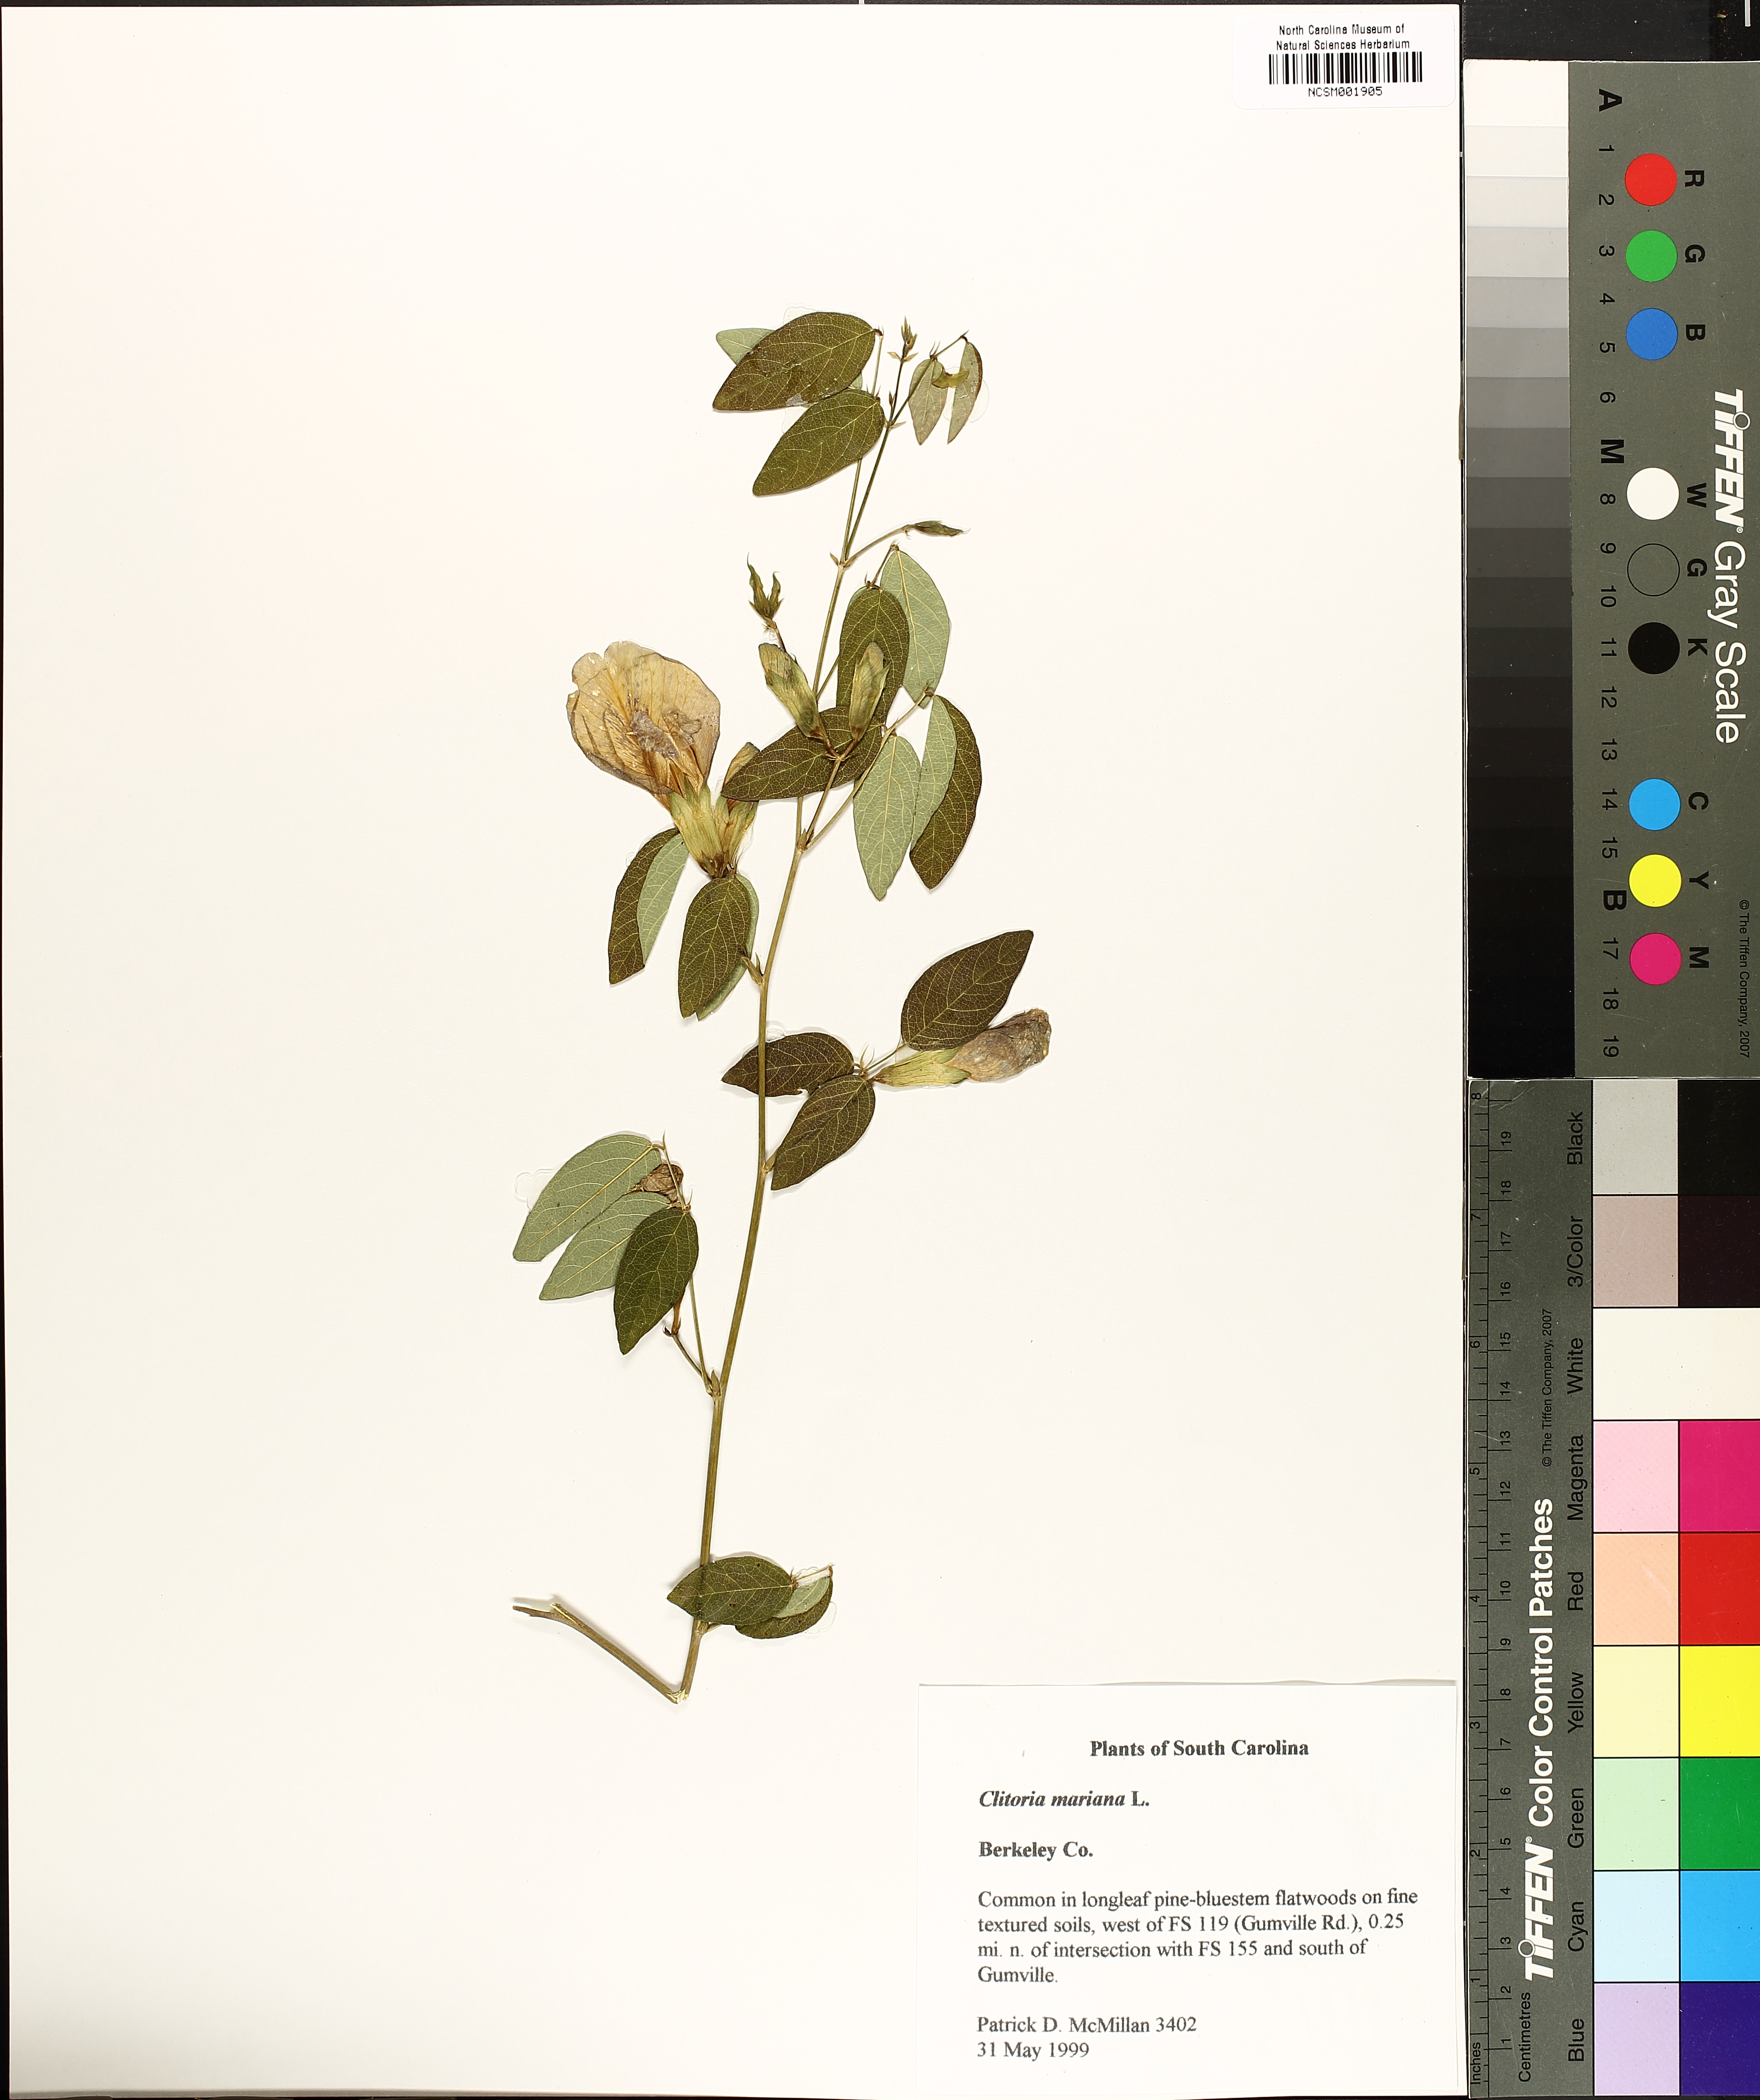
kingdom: Plantae
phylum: Tracheophyta
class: Magnoliopsida
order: Fabales
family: Fabaceae
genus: Clitoria
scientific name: Clitoria mariana
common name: Butterfly-pea
